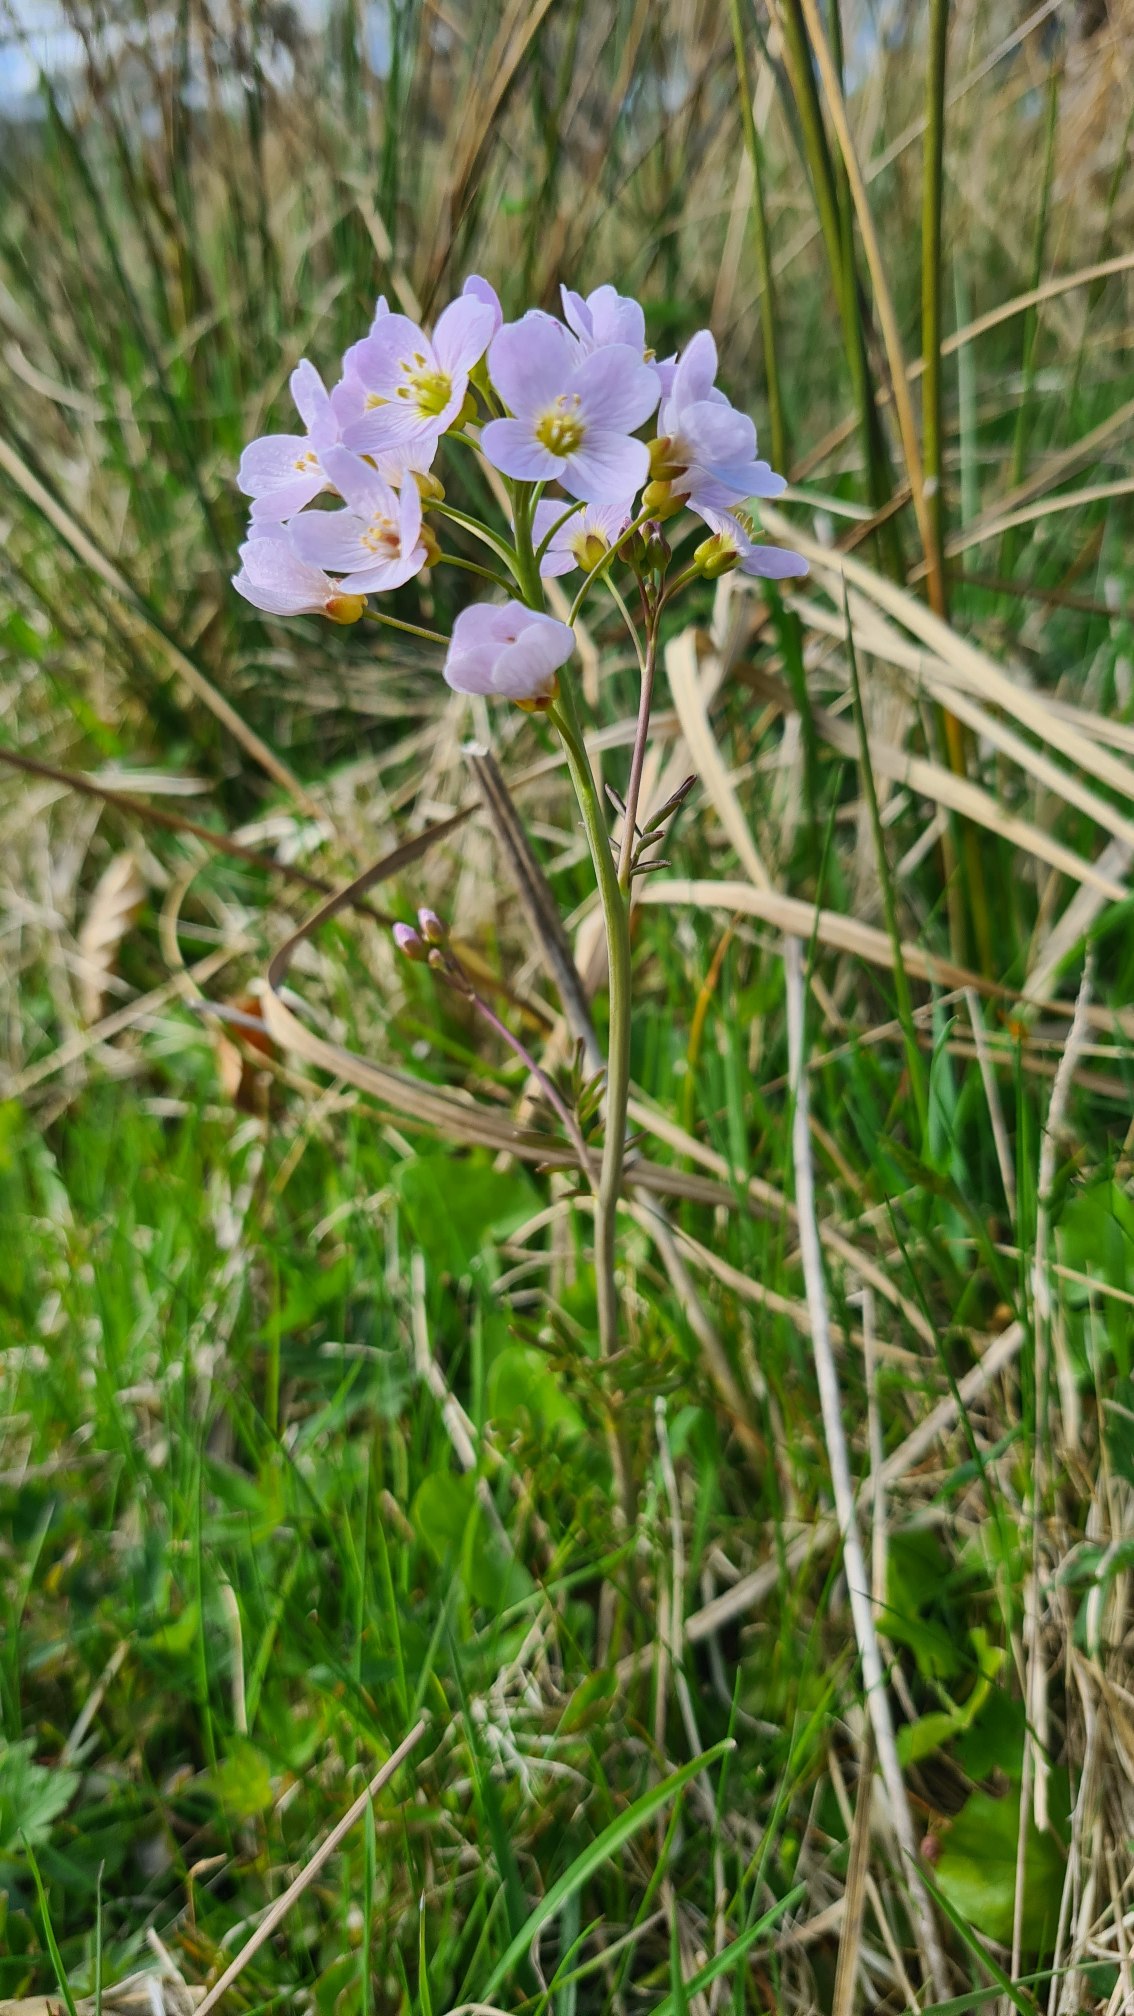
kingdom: Plantae
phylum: Tracheophyta
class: Magnoliopsida
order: Brassicales
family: Brassicaceae
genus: Cardamine
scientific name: Cardamine pratensis
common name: Engkarse
